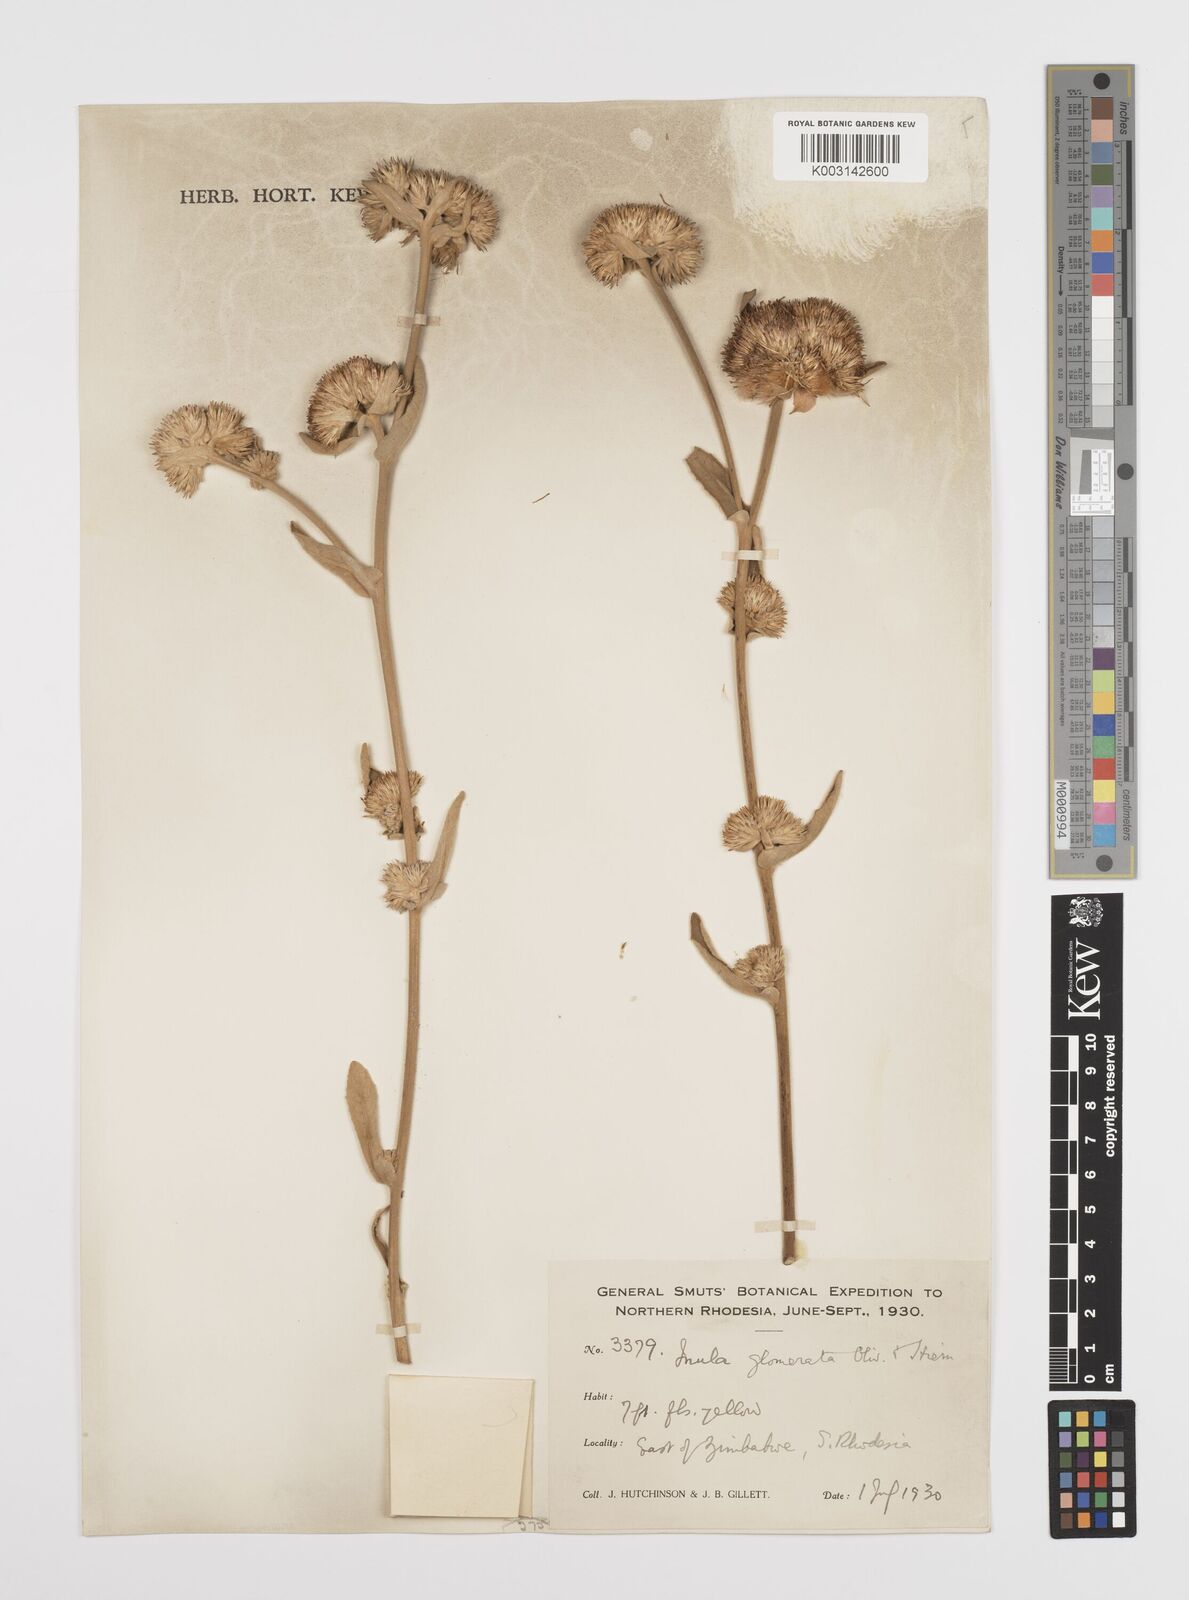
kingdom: Plantae
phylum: Tracheophyta
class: Magnoliopsida
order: Asterales
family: Asteraceae
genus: Inula
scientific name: Inula glomerata
